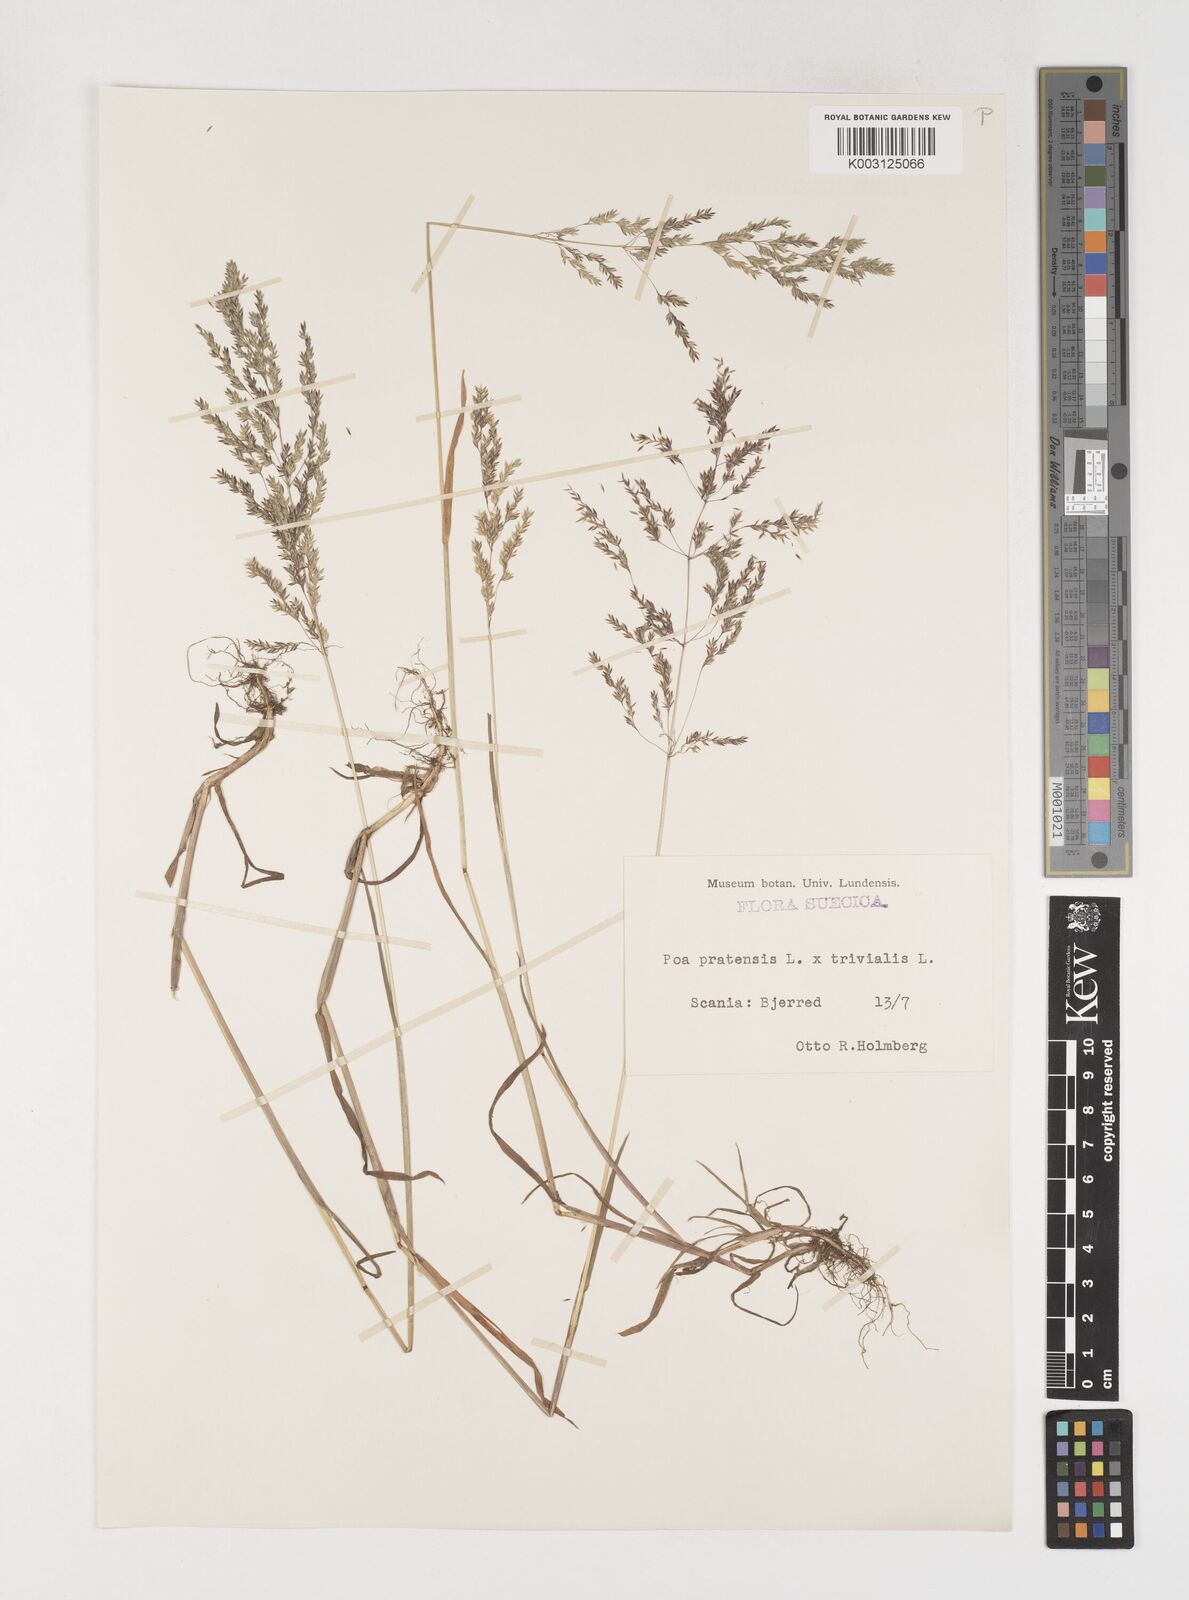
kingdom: Plantae
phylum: Tracheophyta
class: Liliopsida
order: Poales
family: Poaceae
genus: Poa
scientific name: Poa trivialis
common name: Rough bluegrass
